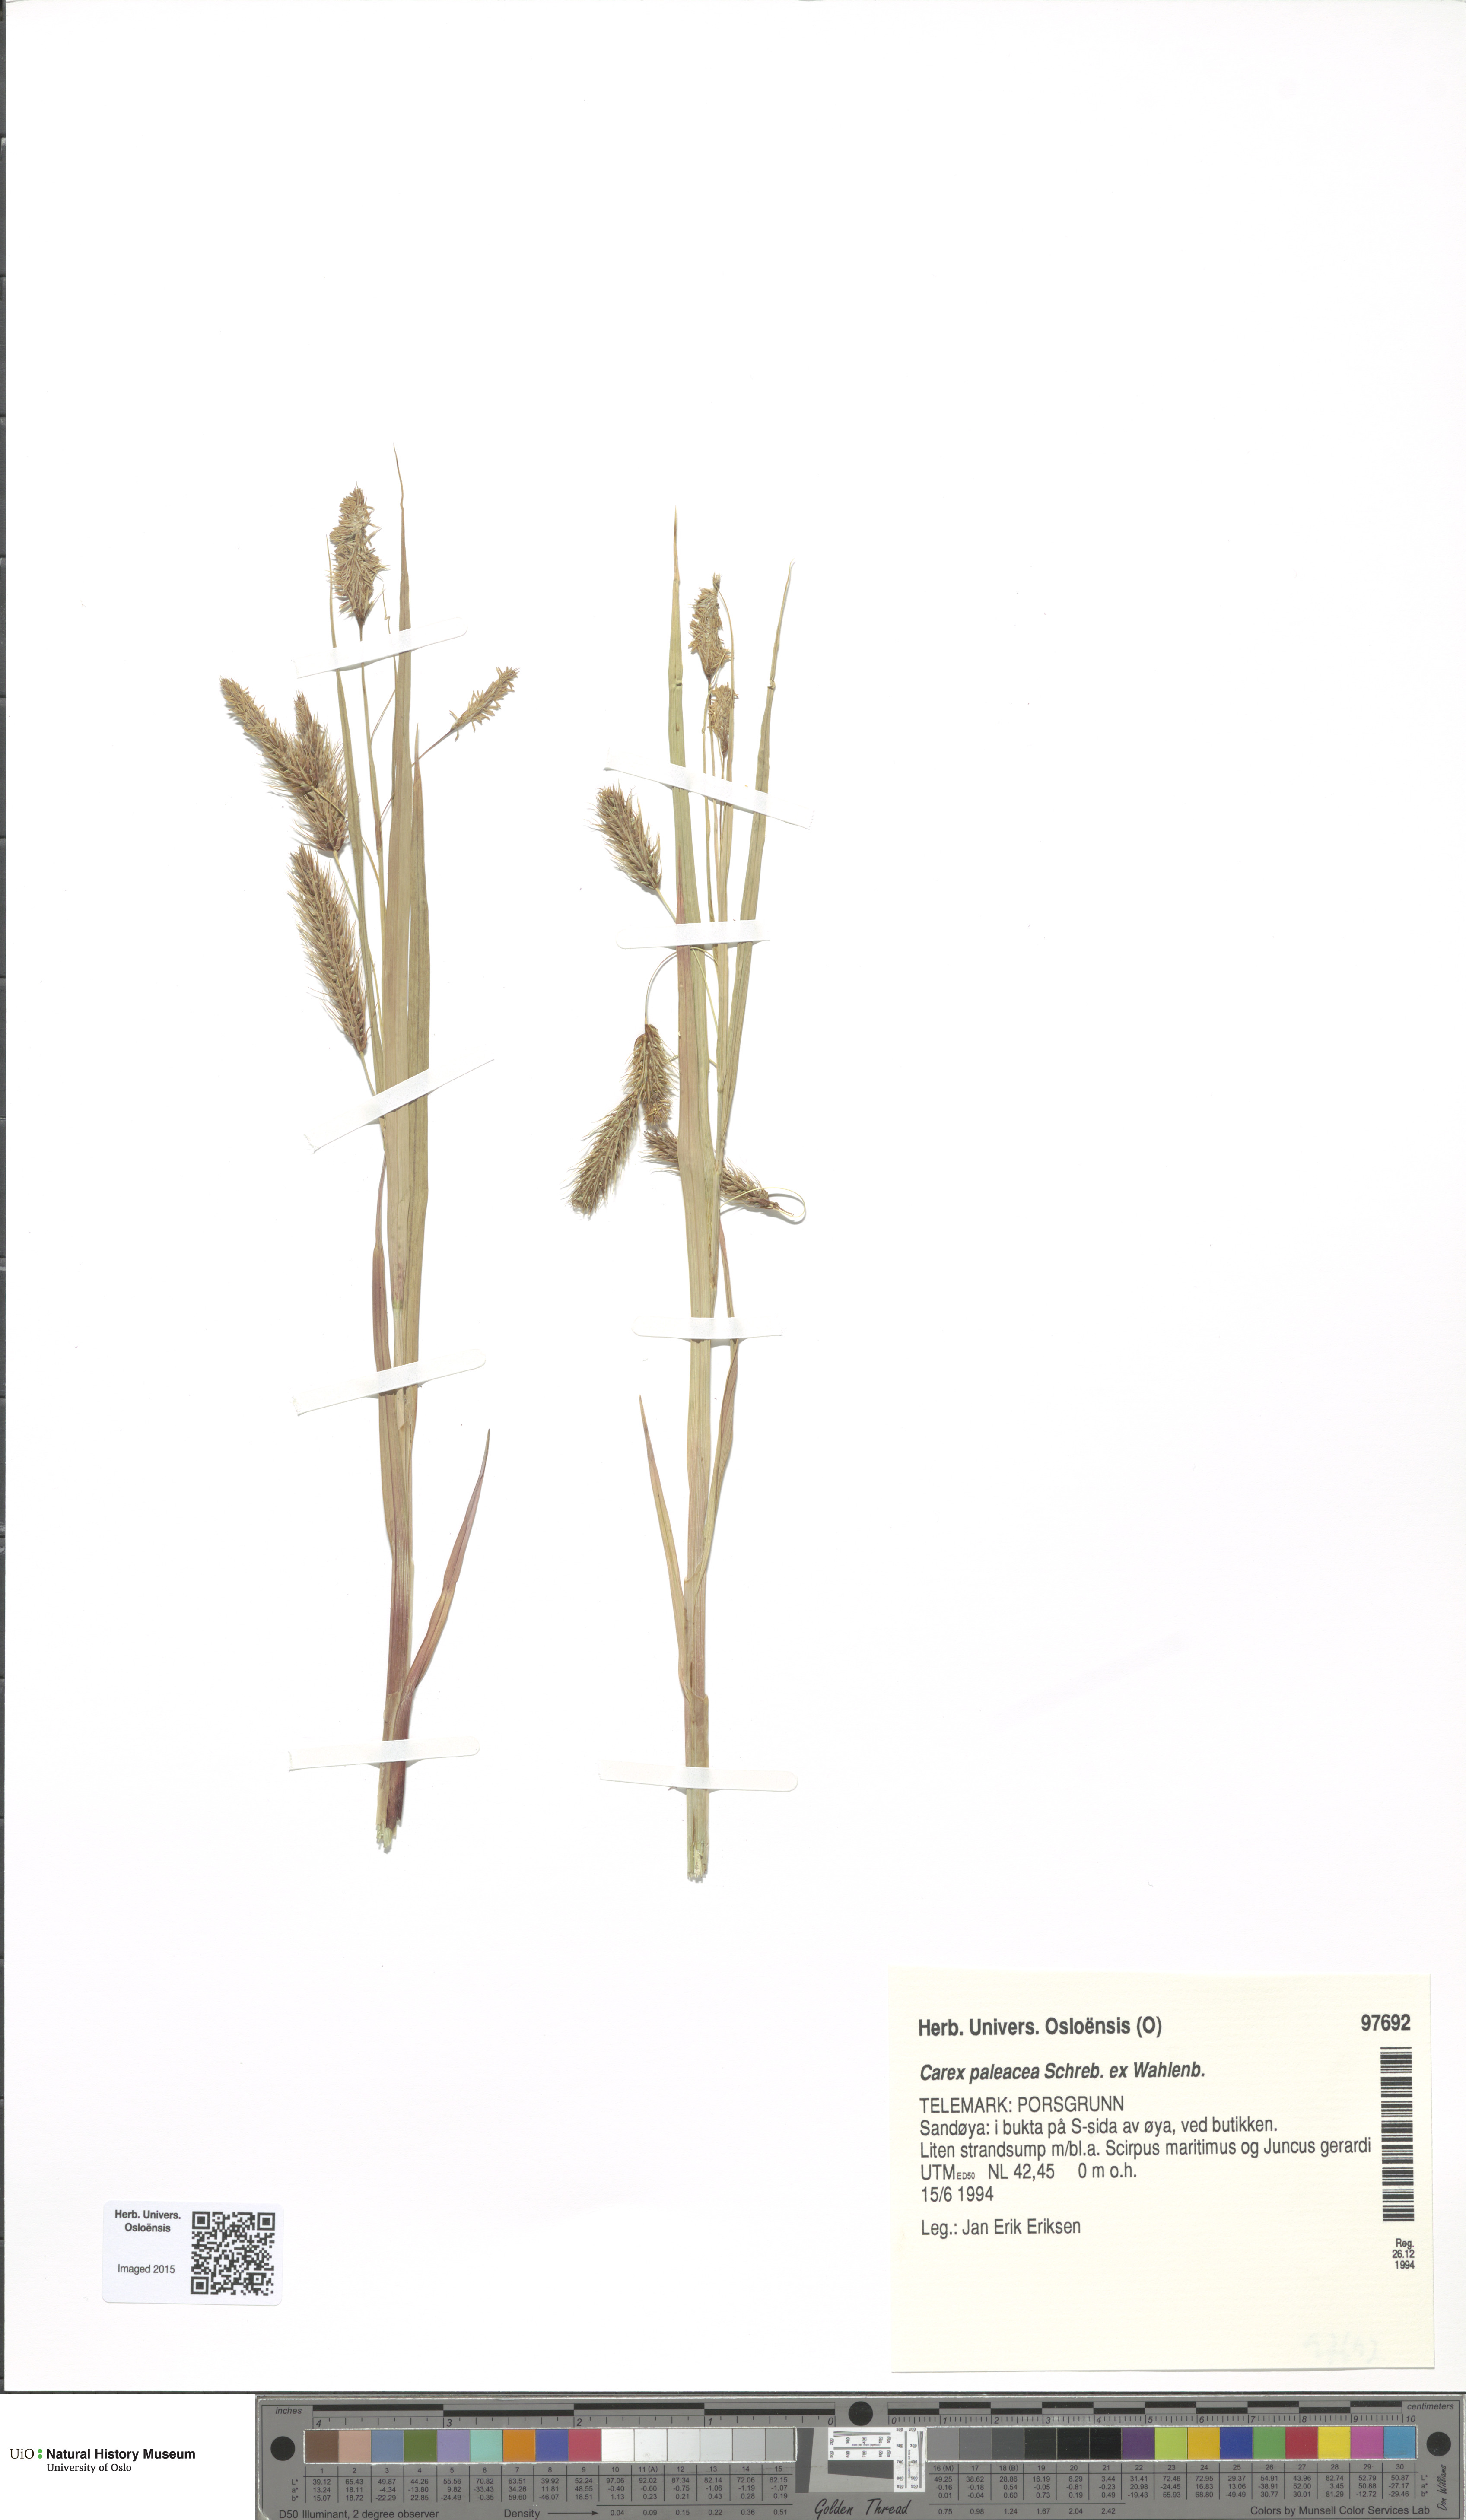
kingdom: Plantae
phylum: Tracheophyta
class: Liliopsida
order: Poales
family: Cyperaceae
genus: Carex
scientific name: Carex paleacea
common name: Chaffy sedge
